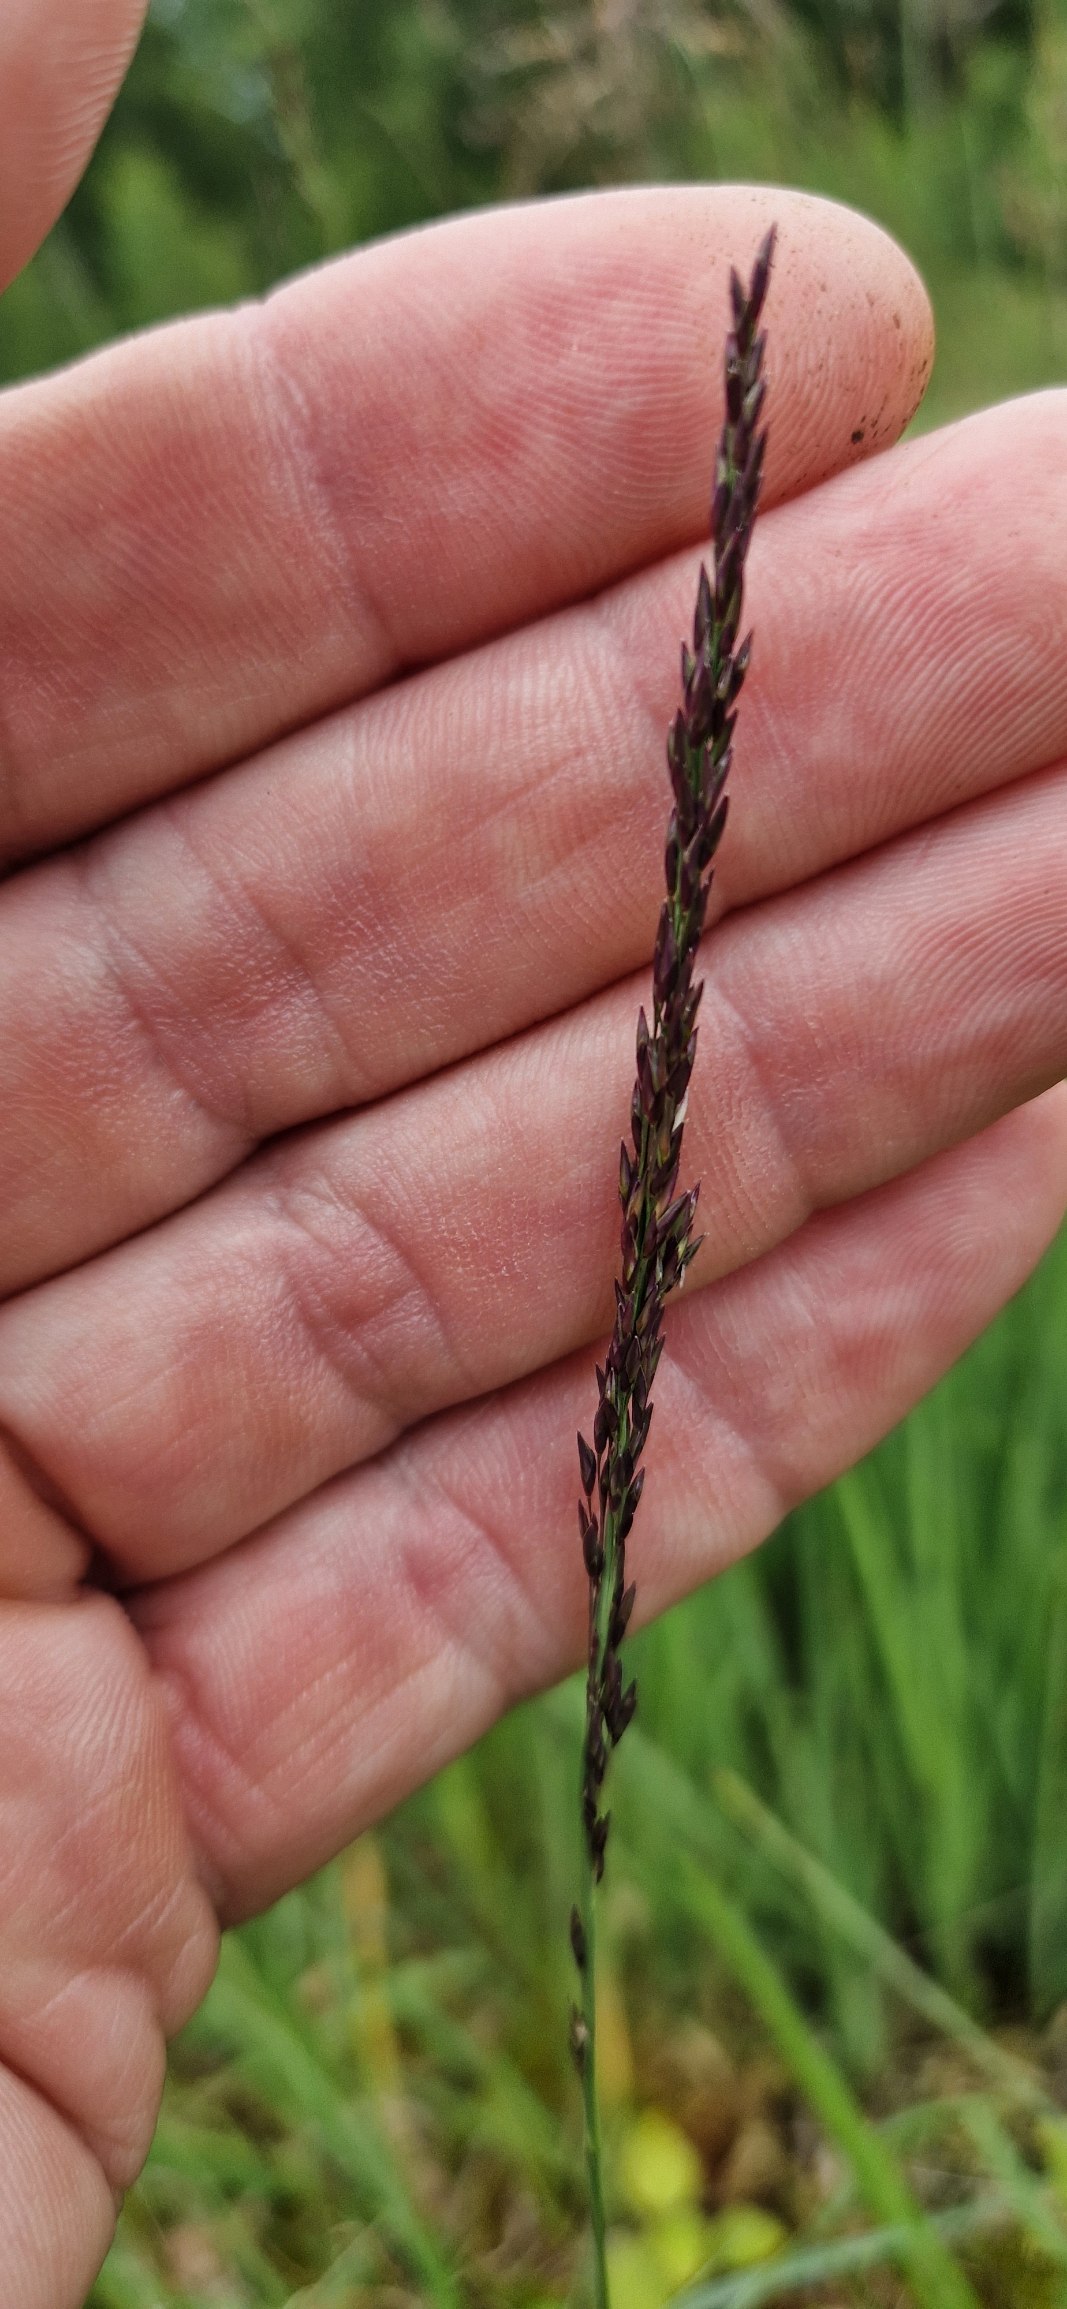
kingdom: Plantae
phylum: Tracheophyta
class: Liliopsida
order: Poales
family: Poaceae
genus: Molinia
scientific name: Molinia caerulea
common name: Blåtop
